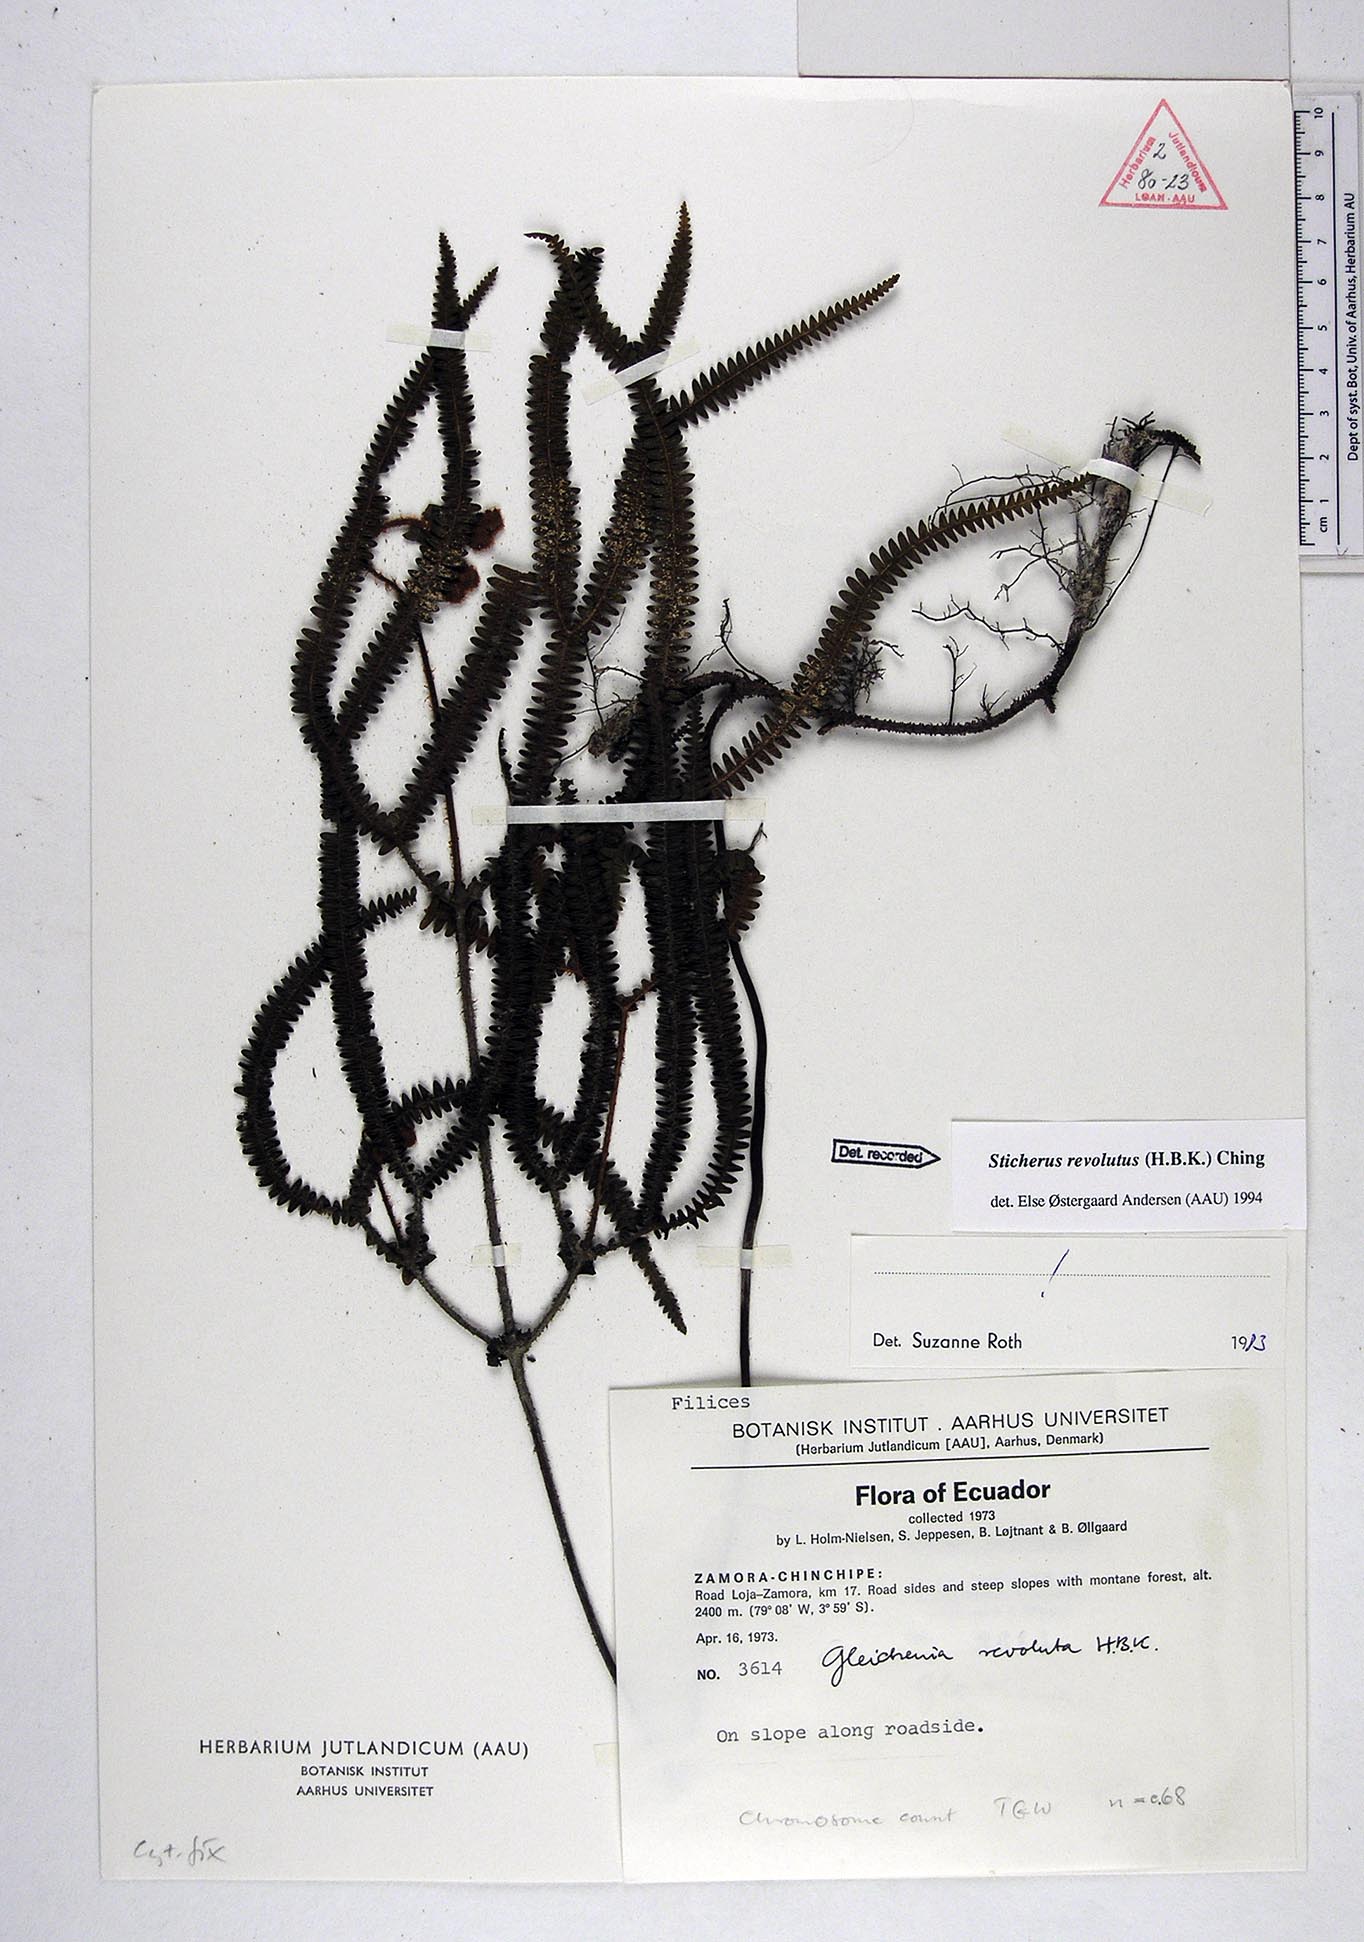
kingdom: Plantae
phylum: Tracheophyta
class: Polypodiopsida
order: Gleicheniales
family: Gleicheniaceae
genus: Sticherus
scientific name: Sticherus revolutus
